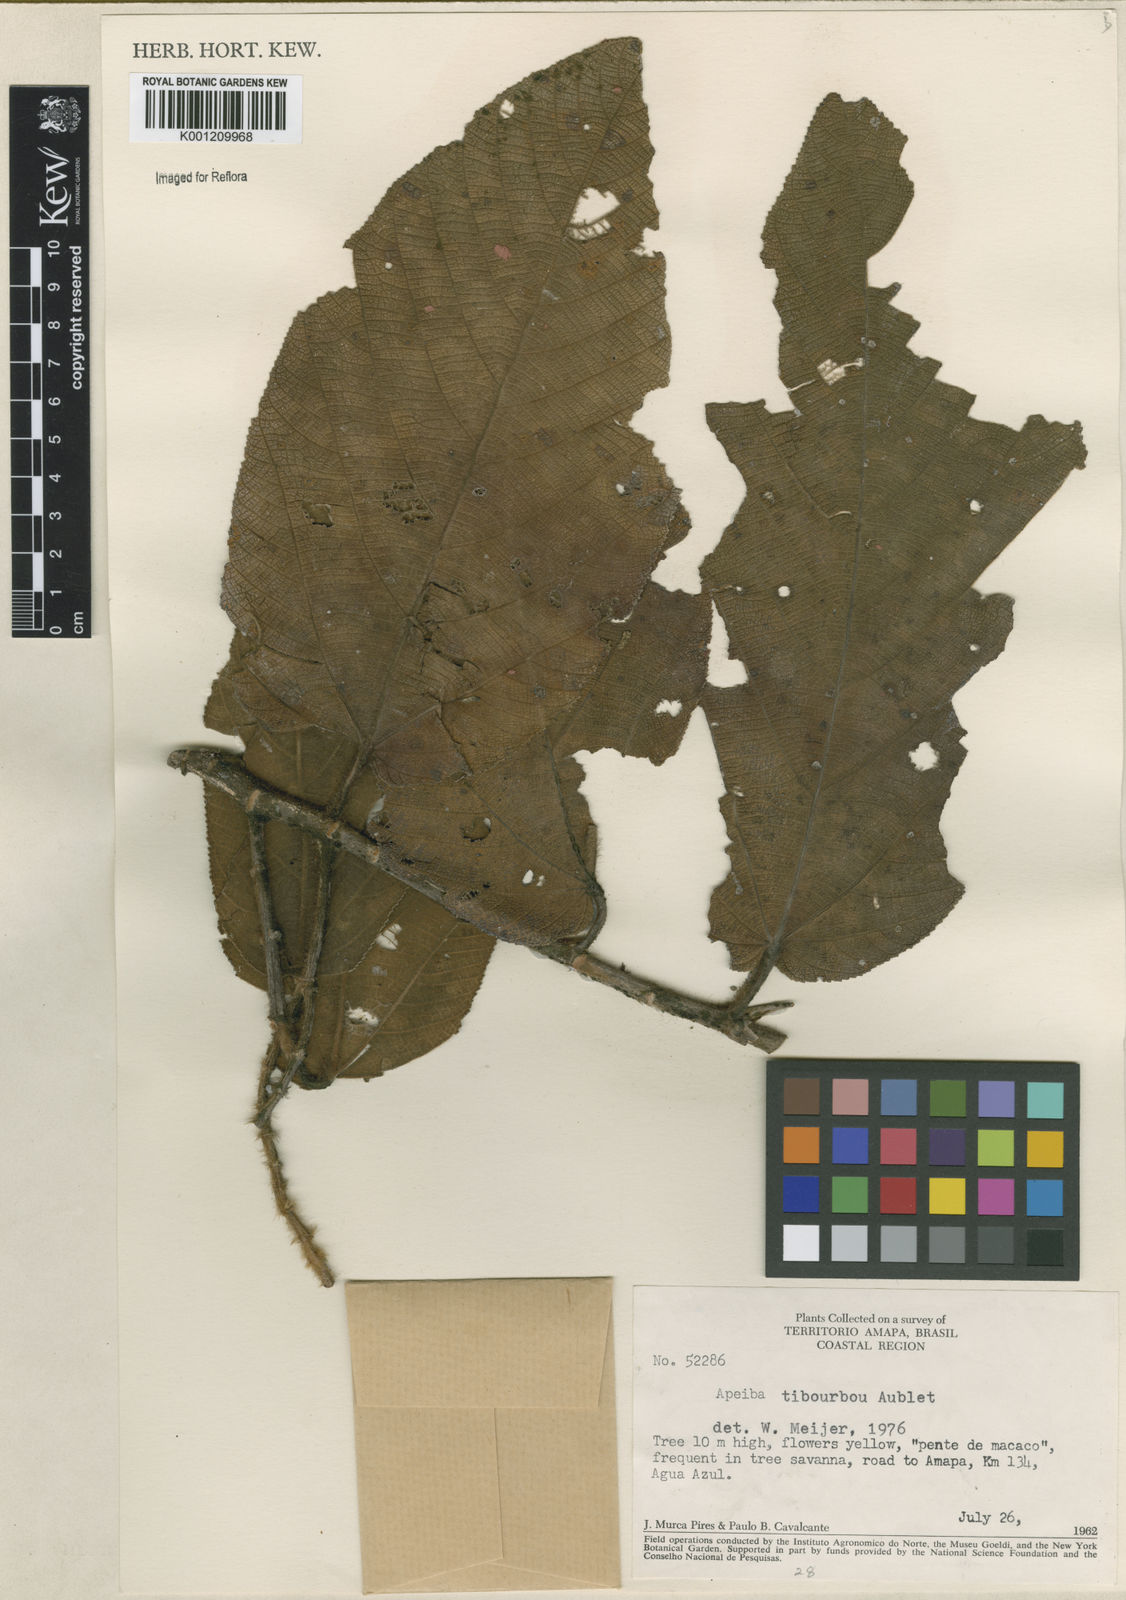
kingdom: Plantae
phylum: Tracheophyta
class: Magnoliopsida
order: Malvales
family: Malvaceae
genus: Apeiba
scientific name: Apeiba tibourbou
